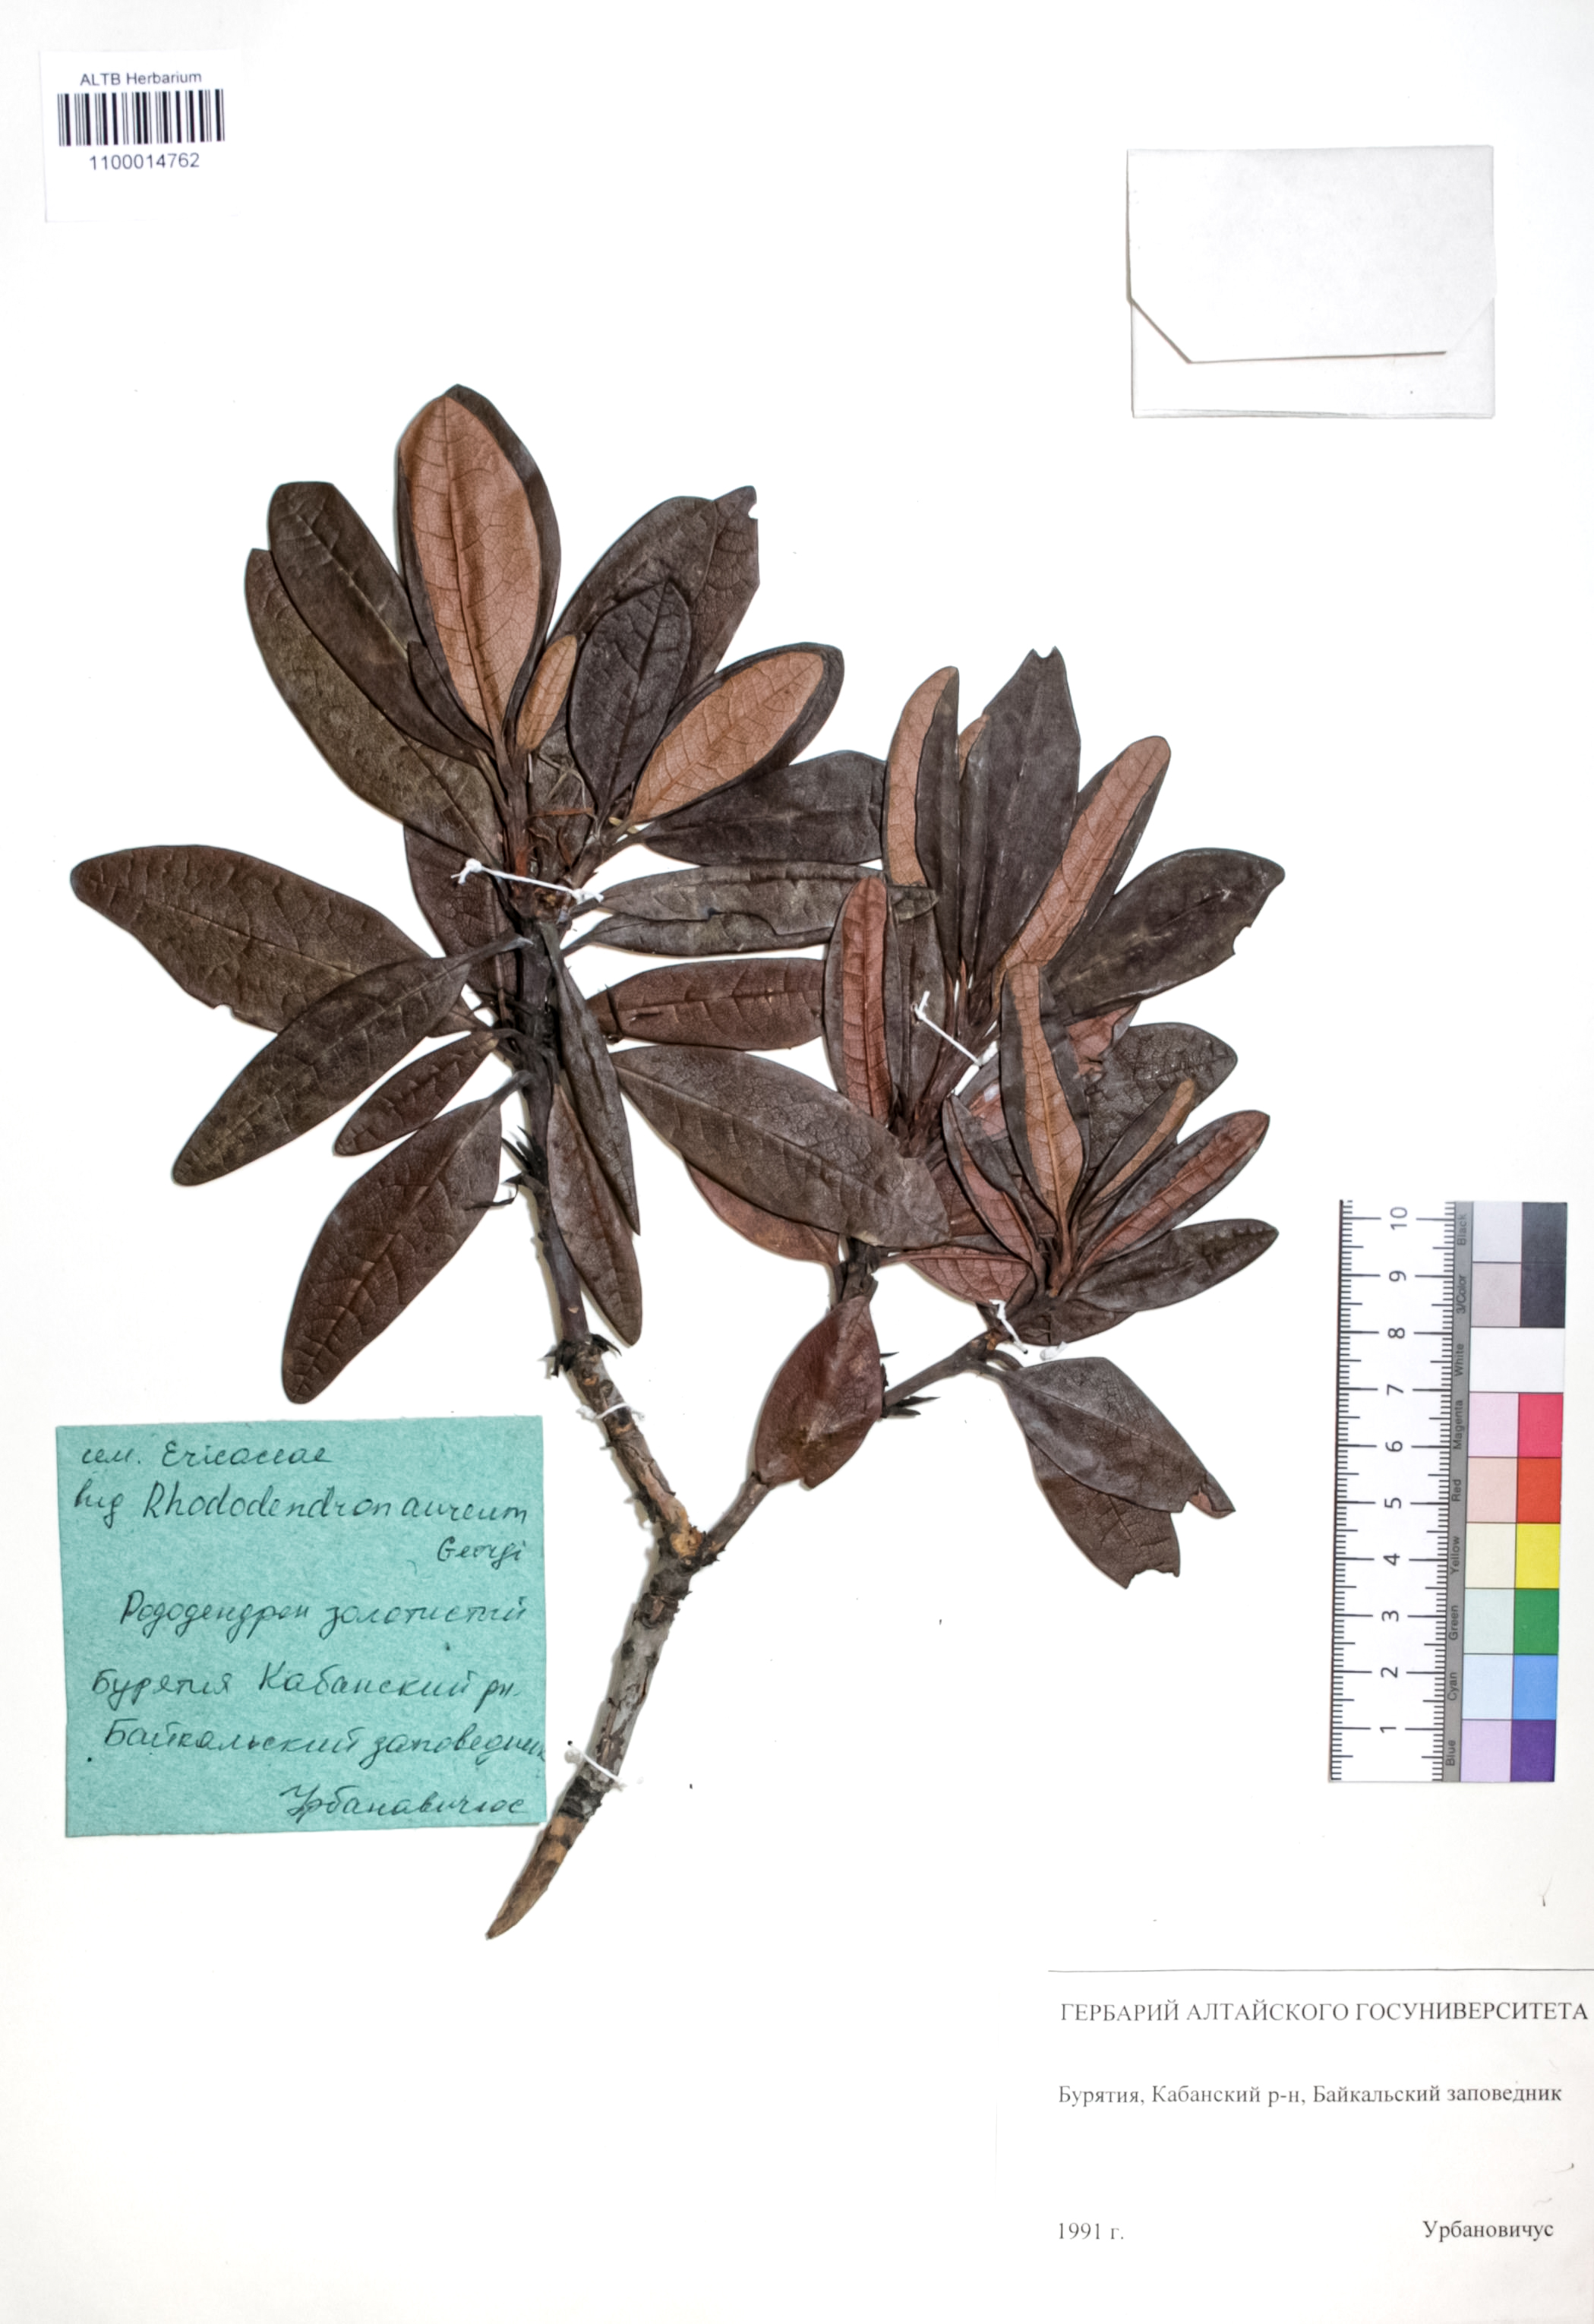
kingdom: Plantae
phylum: Tracheophyta
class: Magnoliopsida
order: Ericales
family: Ericaceae
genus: Rhododendron
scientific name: Rhododendron aureum
